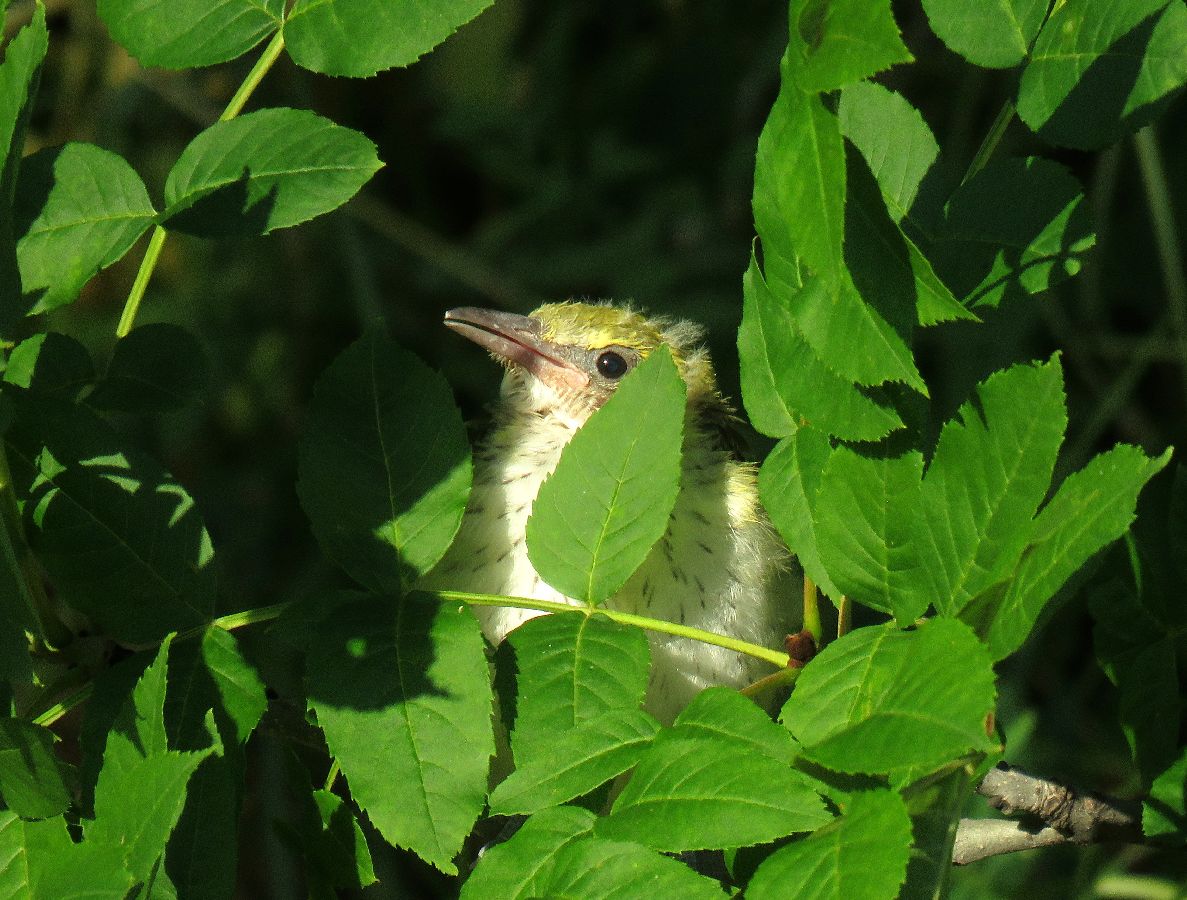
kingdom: Animalia
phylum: Chordata
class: Aves
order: Passeriformes
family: Oriolidae
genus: Oriolus
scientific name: Oriolus oriolus
